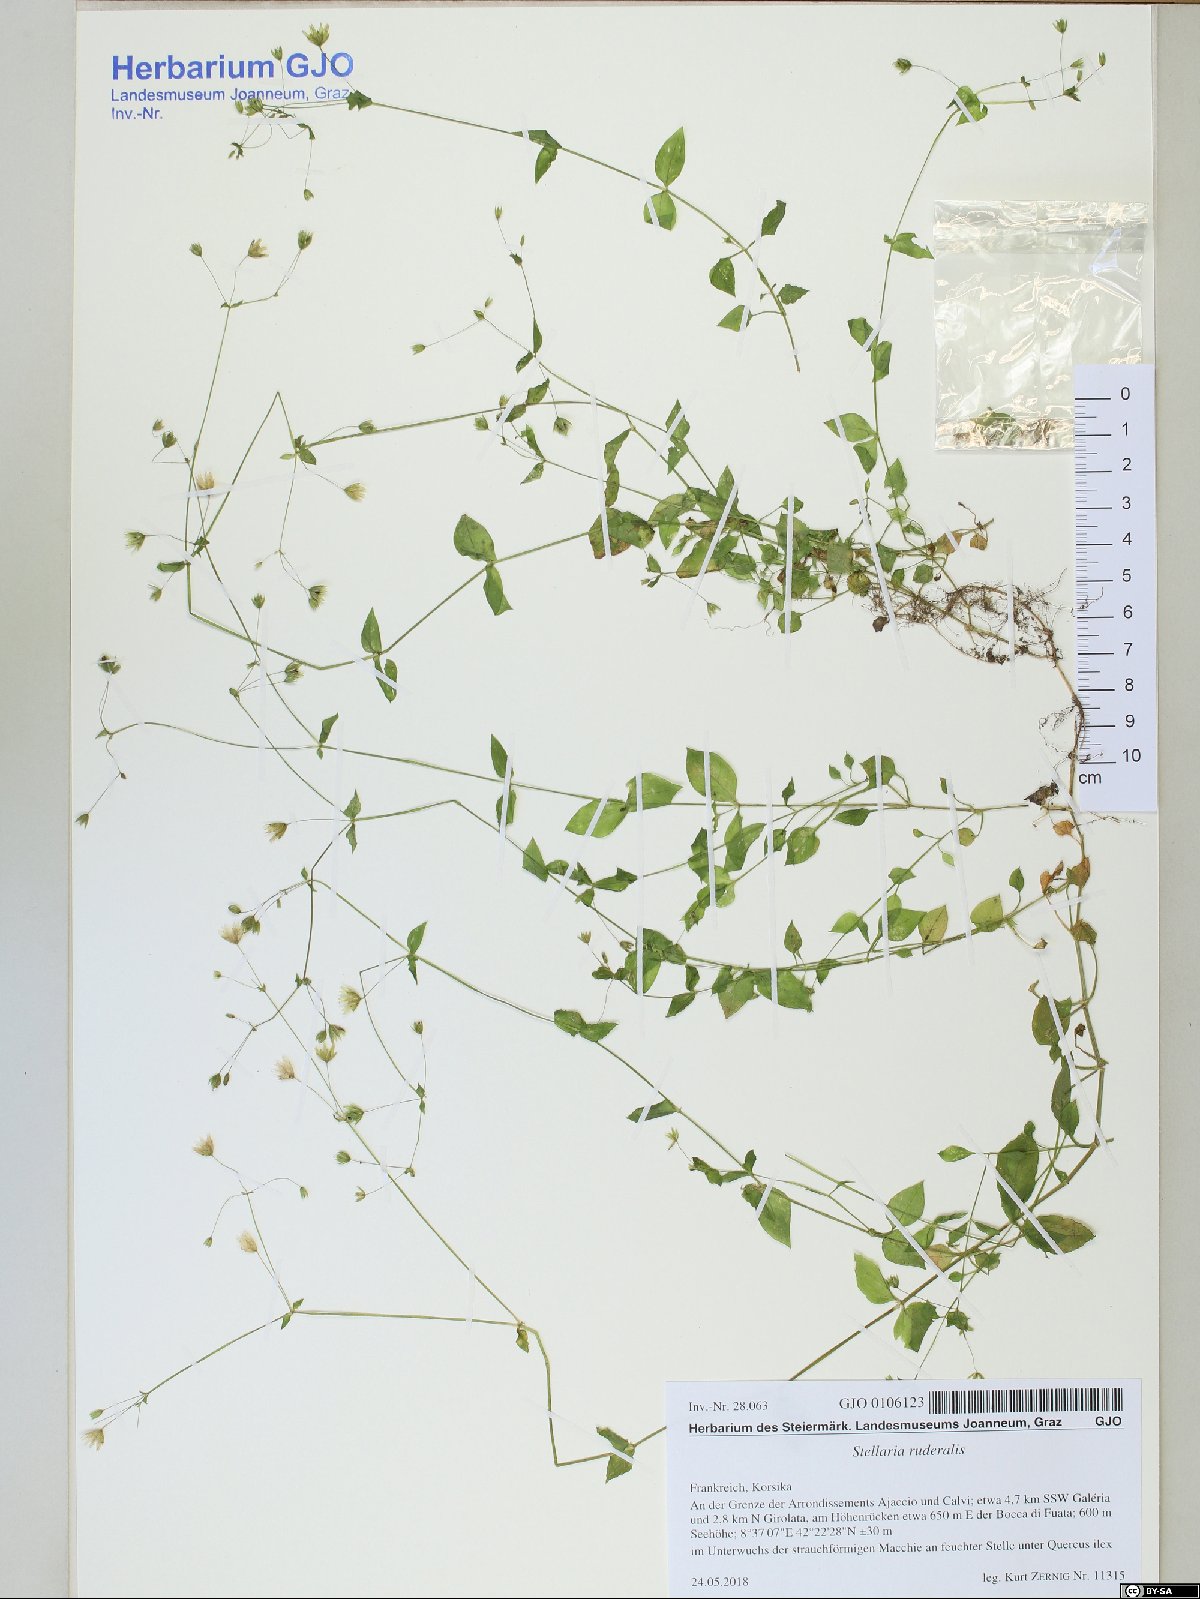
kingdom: Plantae
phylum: Tracheophyta
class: Magnoliopsida
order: Caryophyllales
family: Caryophyllaceae
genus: Stellaria
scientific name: Stellaria ruderalis
